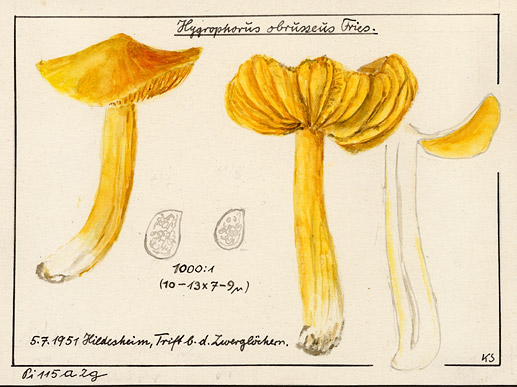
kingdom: Fungi
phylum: Basidiomycota
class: Agaricomycetes
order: Agaricales
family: Hygrophoraceae
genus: Hygrocybe
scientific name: Hygrocybe acutoconica
